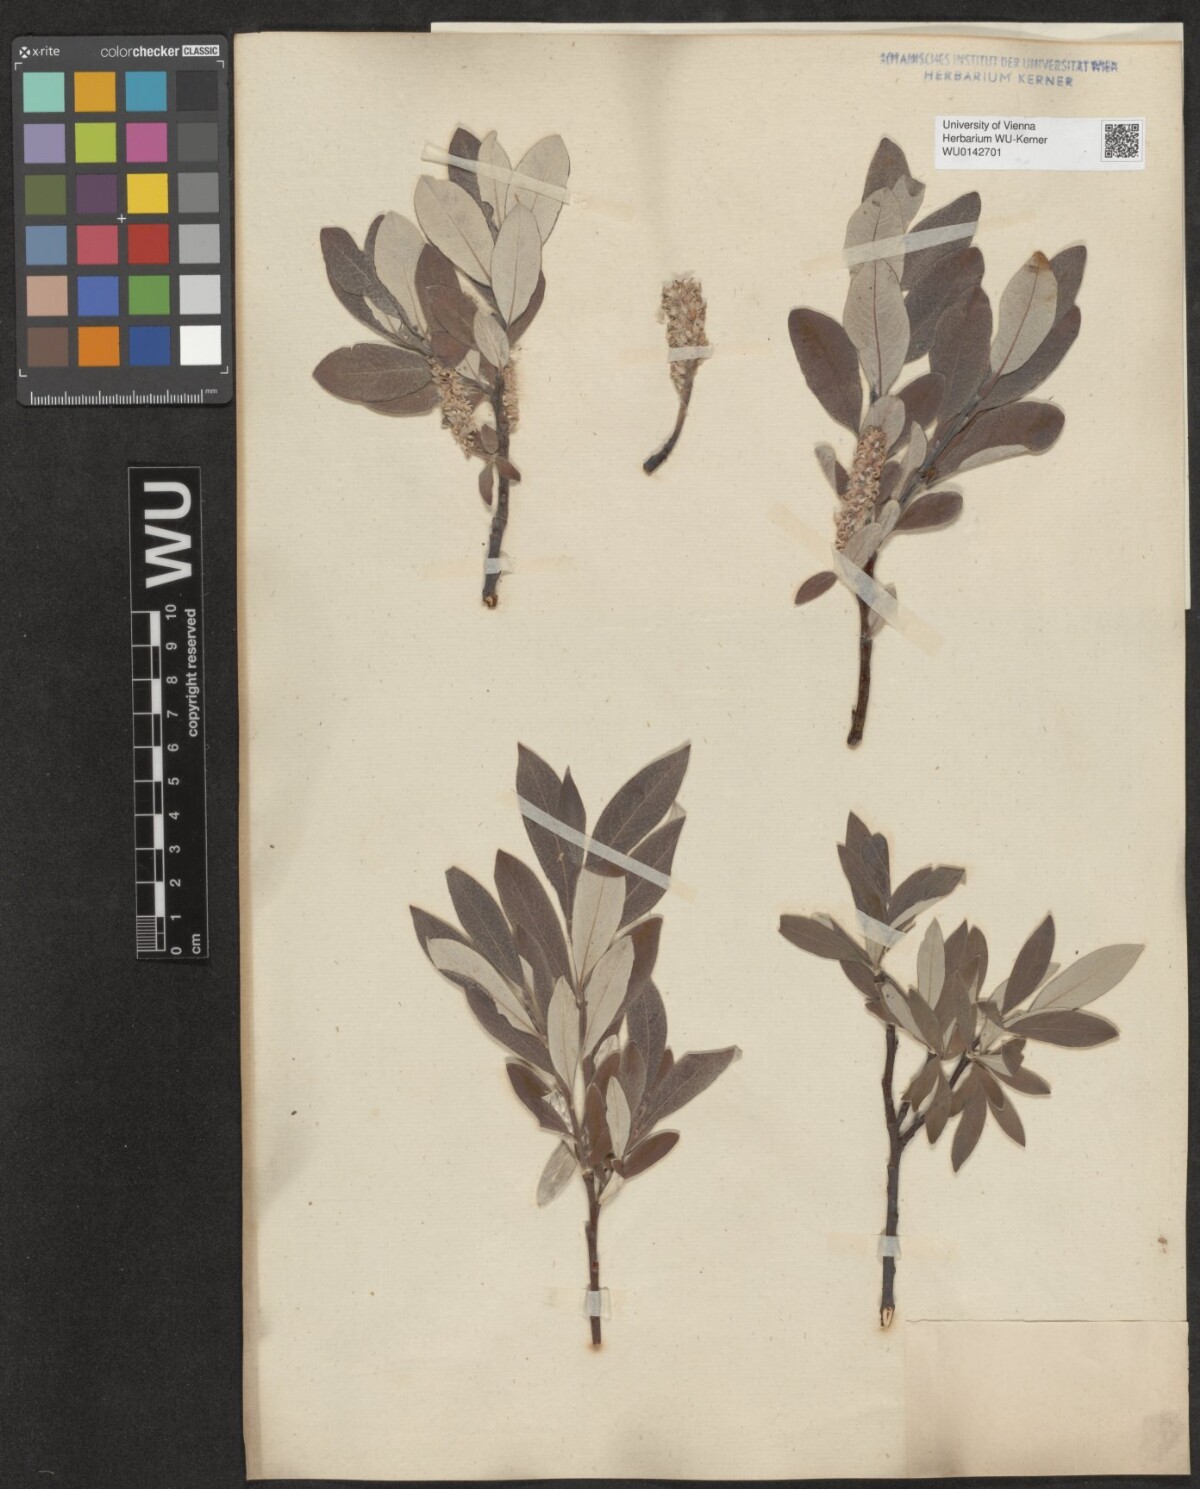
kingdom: Plantae
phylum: Tracheophyta
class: Magnoliopsida
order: Malpighiales
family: Salicaceae
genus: Salix
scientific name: Salix helvetica
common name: Swiss willow
